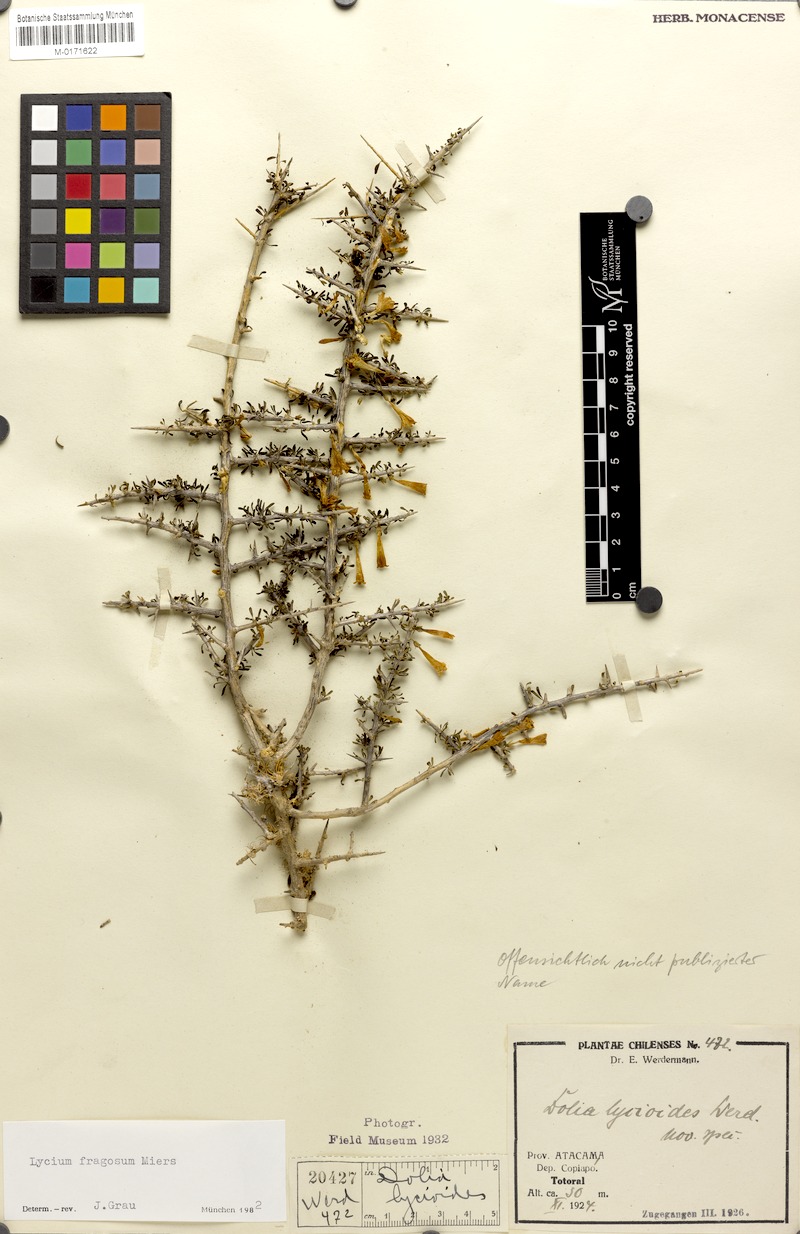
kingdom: Plantae
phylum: Tracheophyta
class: Magnoliopsida
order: Solanales
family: Solanaceae
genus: Lycium
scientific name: Lycium stenophyllum
